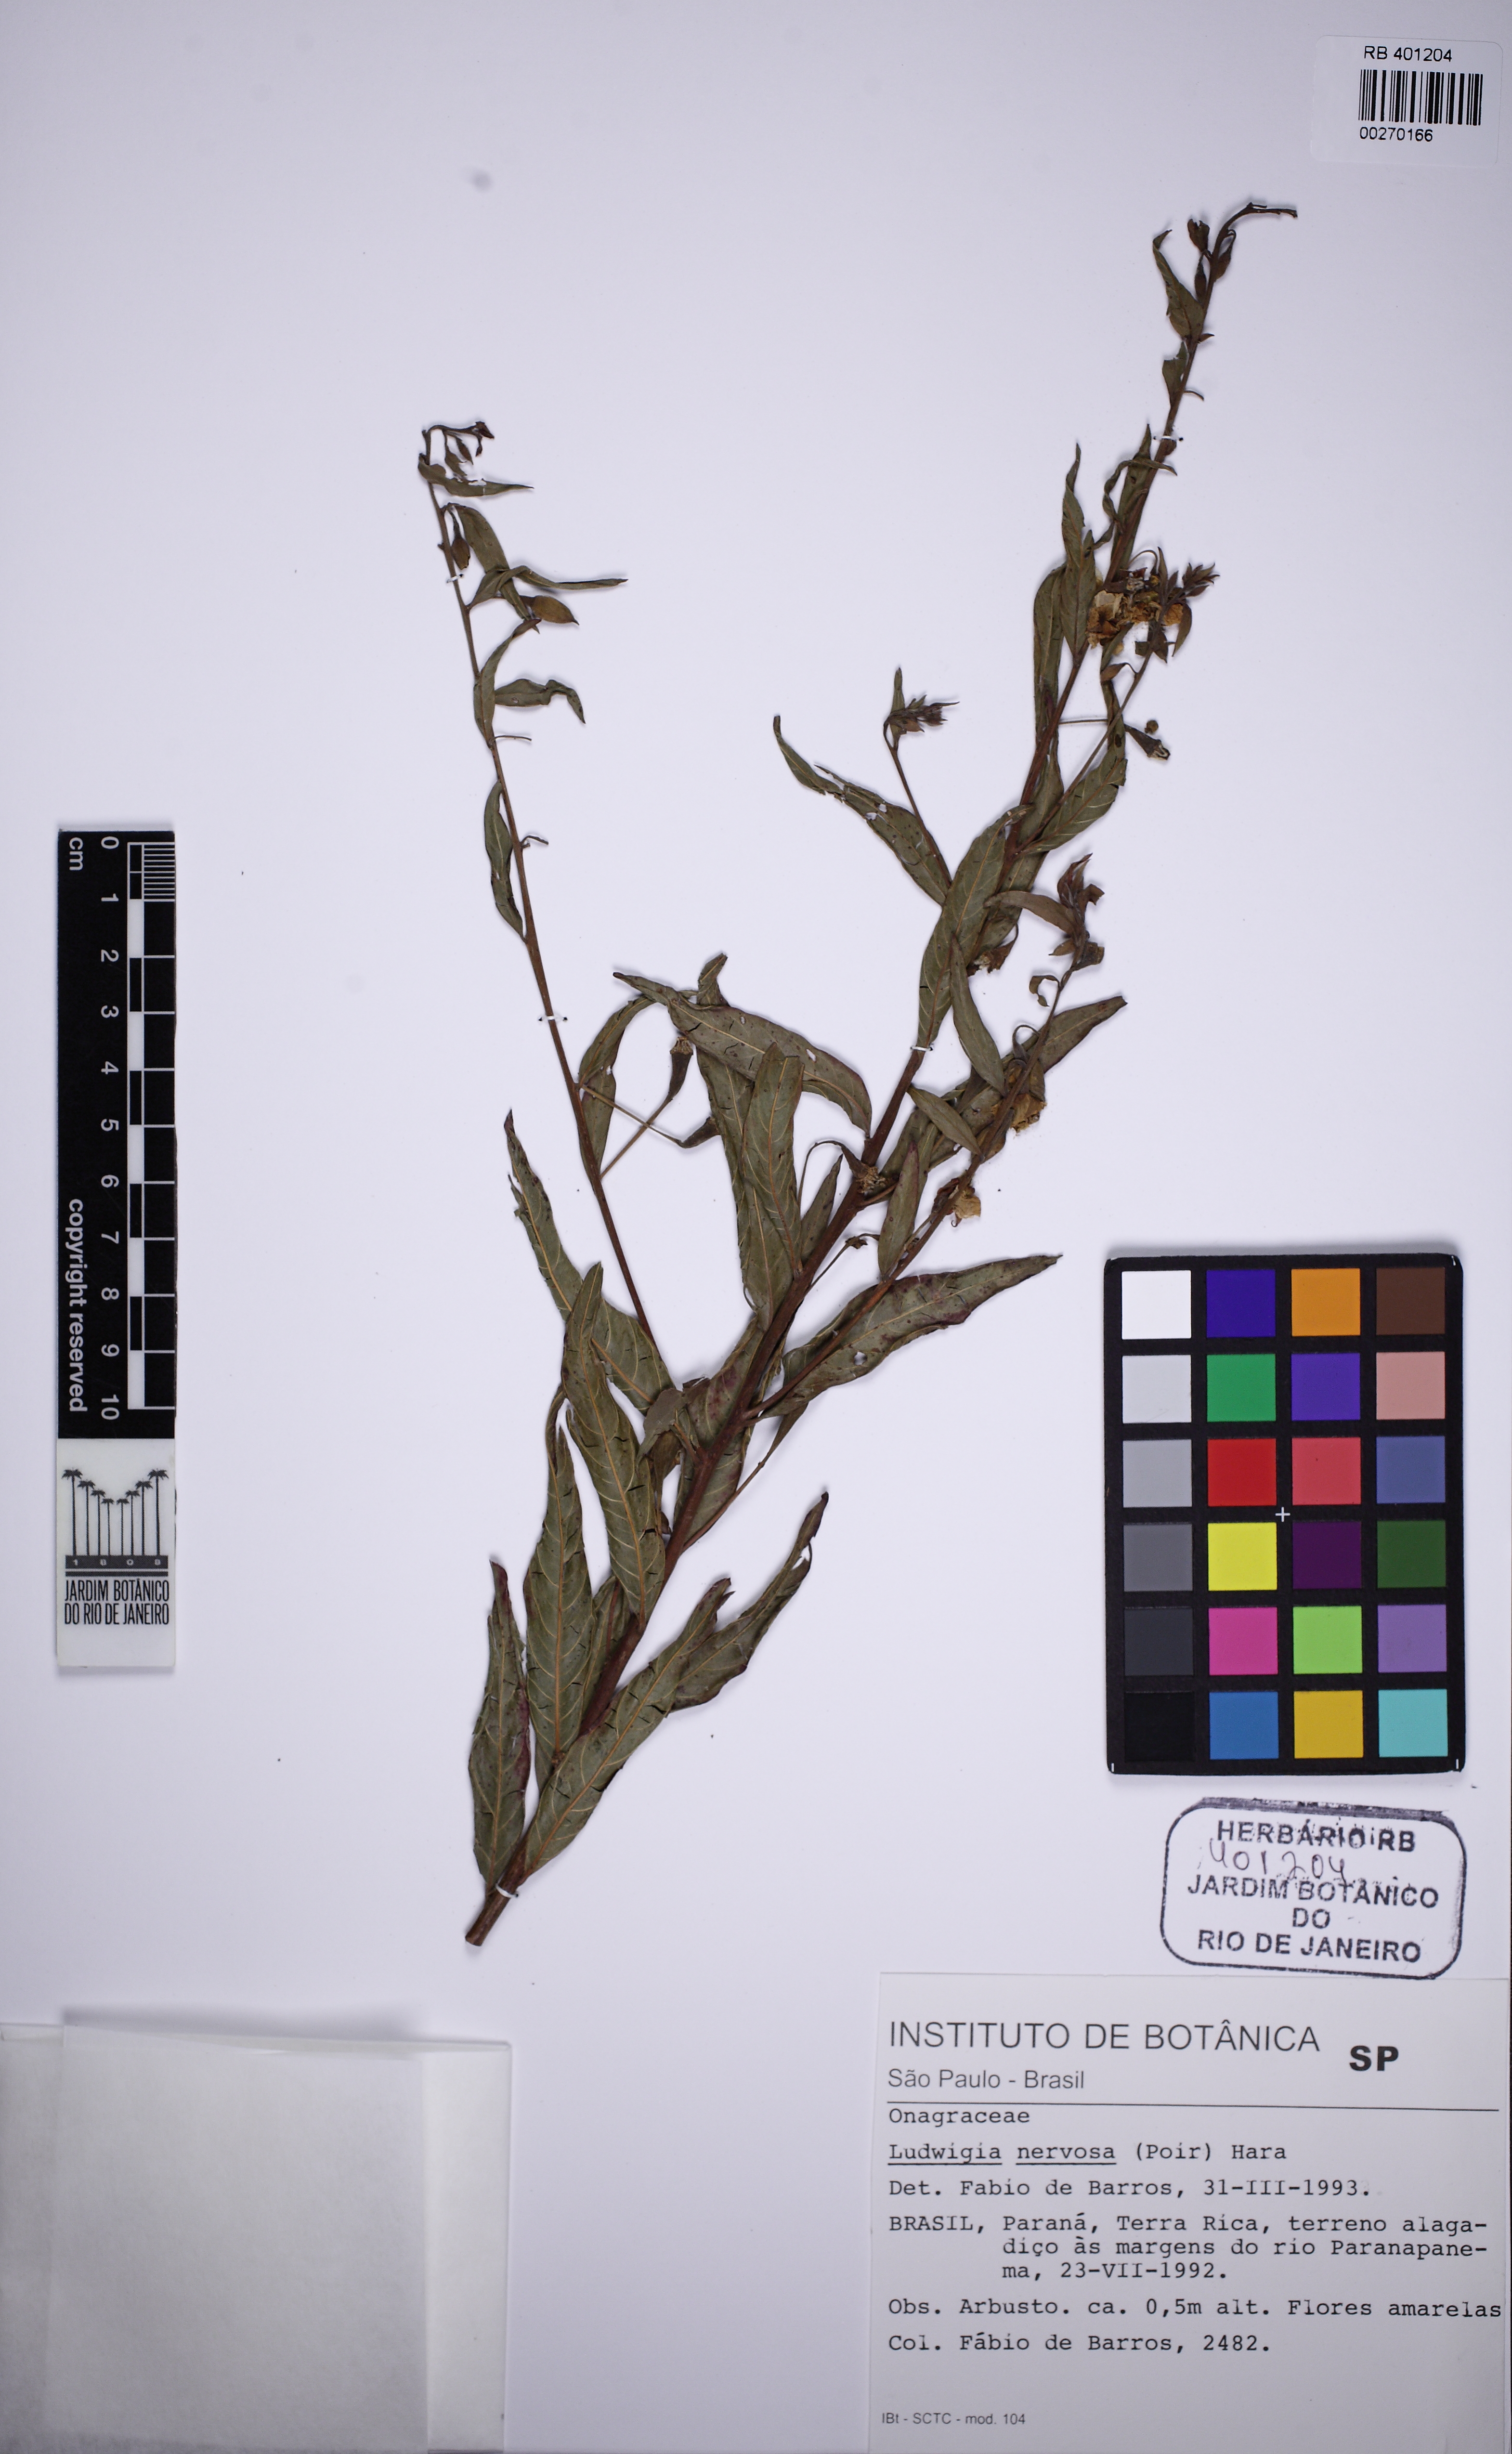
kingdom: Plantae
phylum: Tracheophyta
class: Magnoliopsida
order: Myrtales
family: Onagraceae
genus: Ludwigia
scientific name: Ludwigia nervosa
